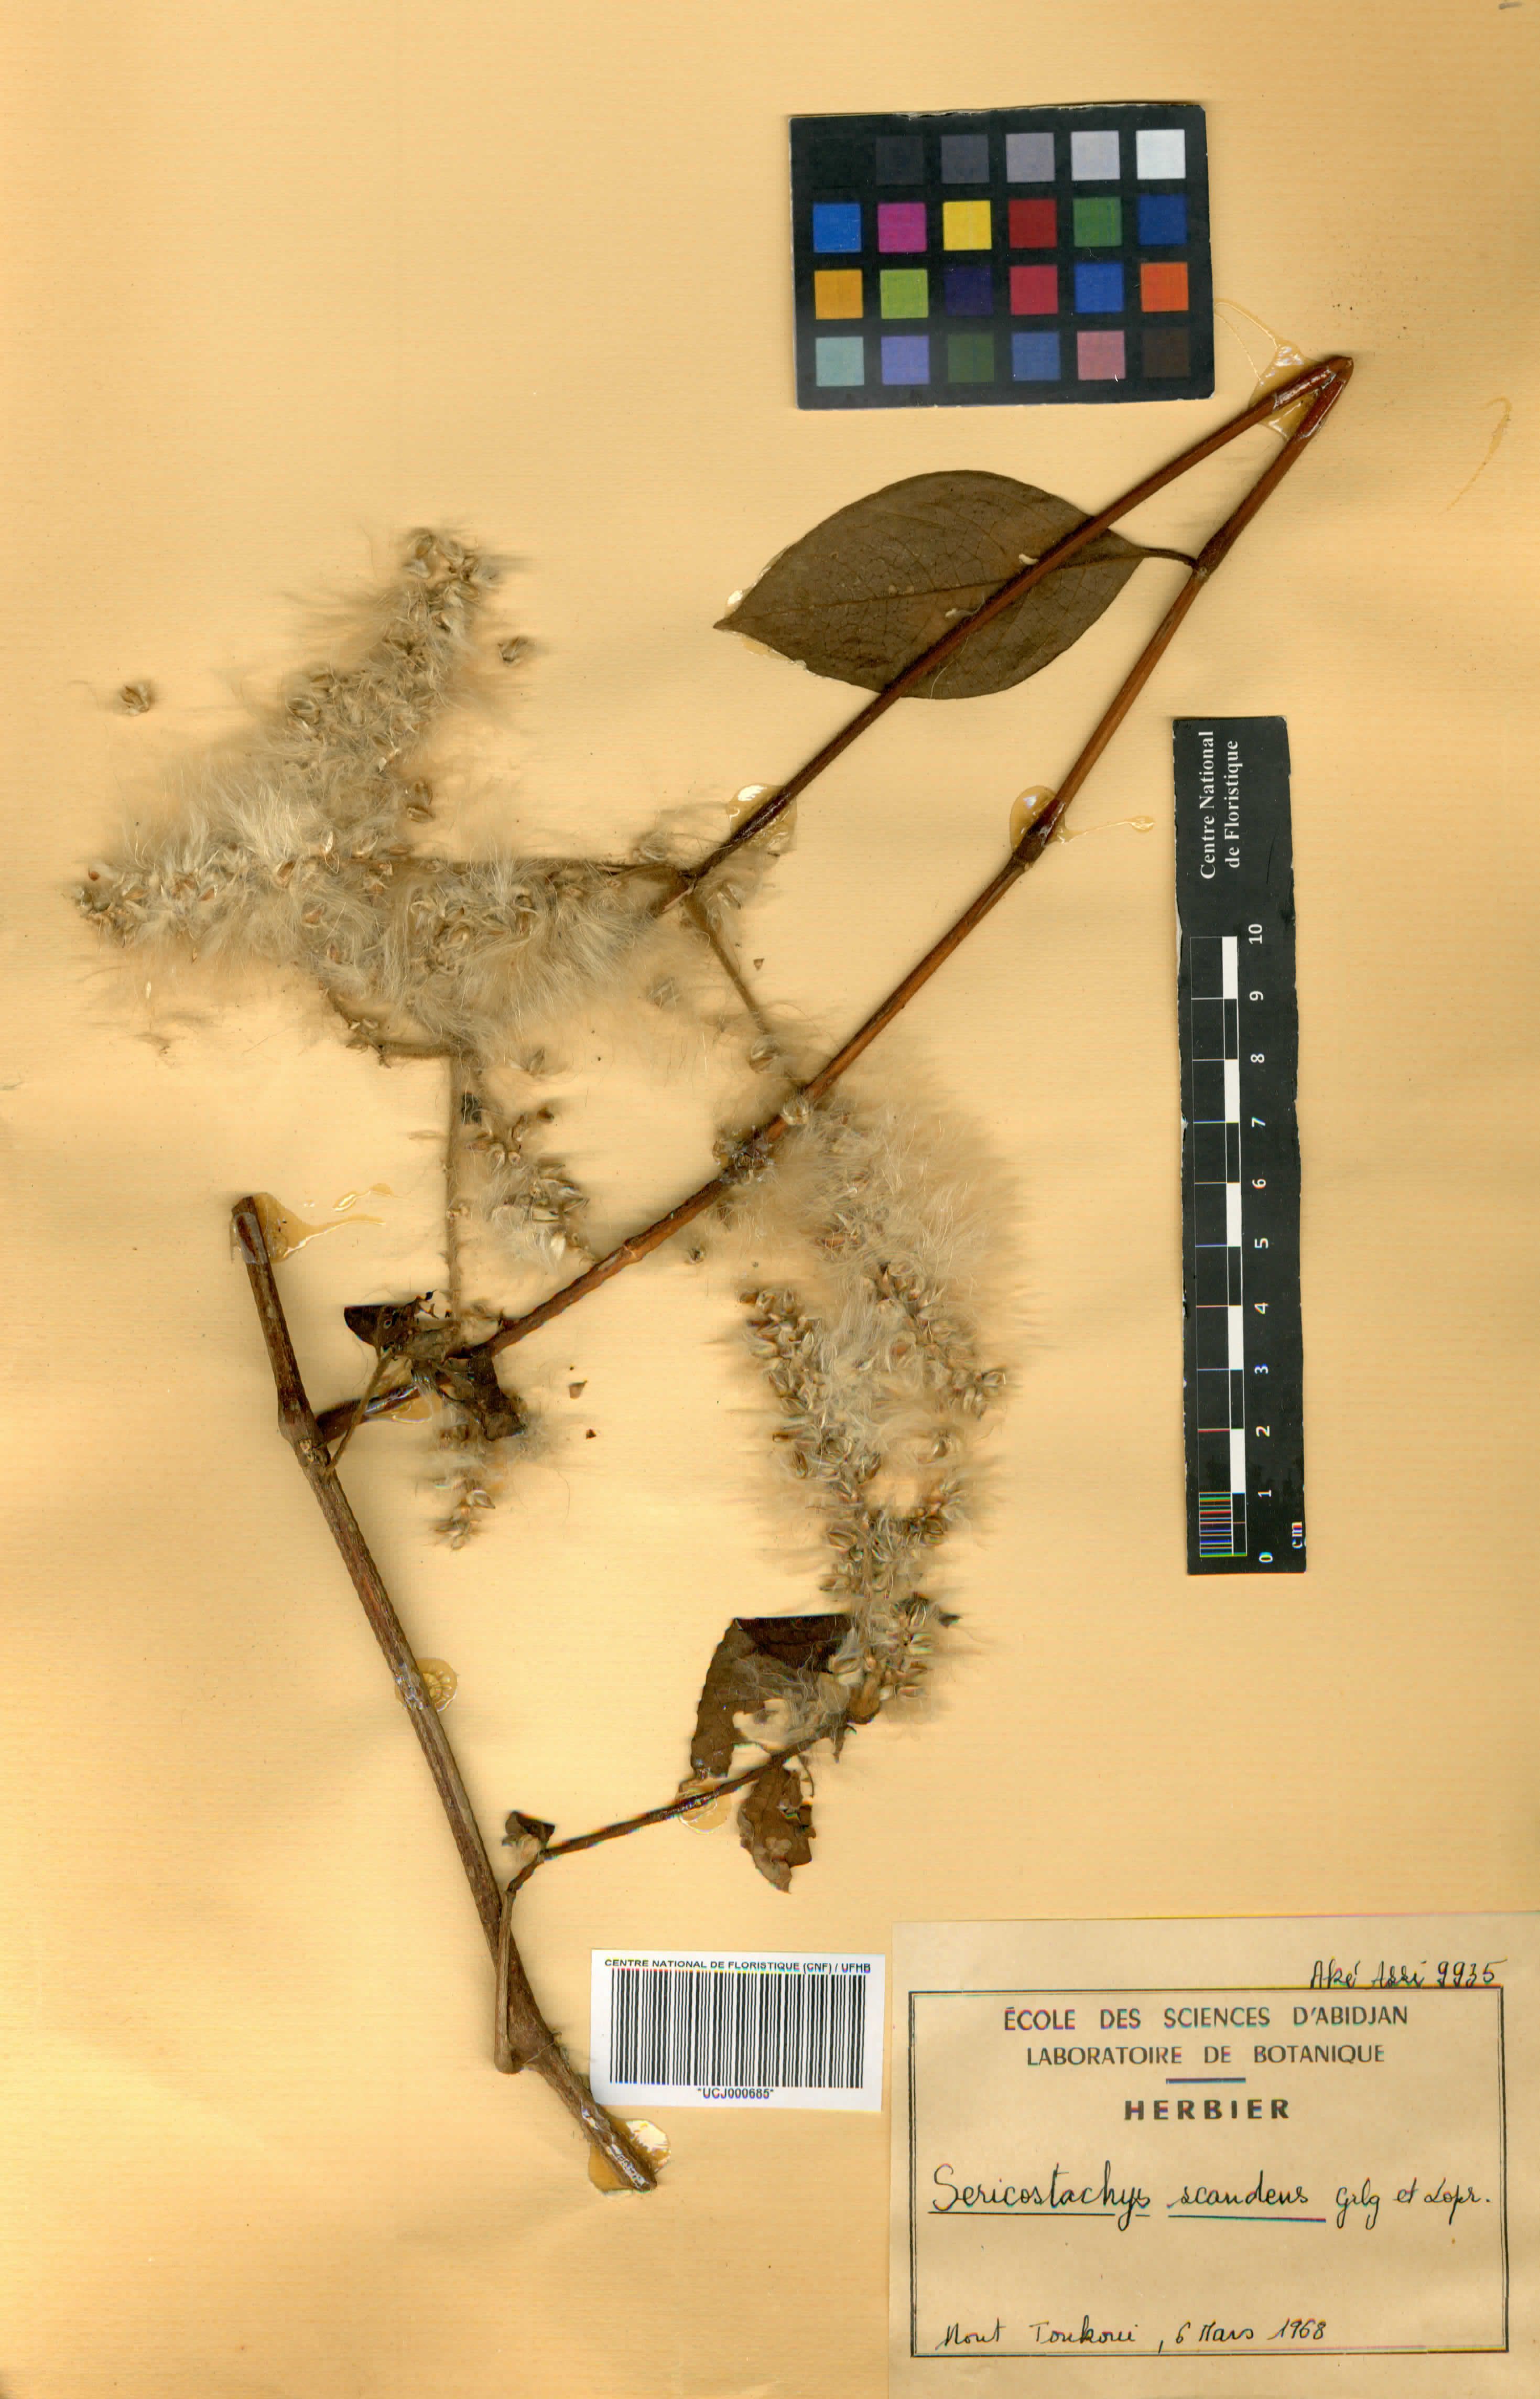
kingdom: Plantae
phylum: Tracheophyta
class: Magnoliopsida
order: Caryophyllales
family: Amaranthaceae
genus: Sericostachys
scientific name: Sericostachys scandens
